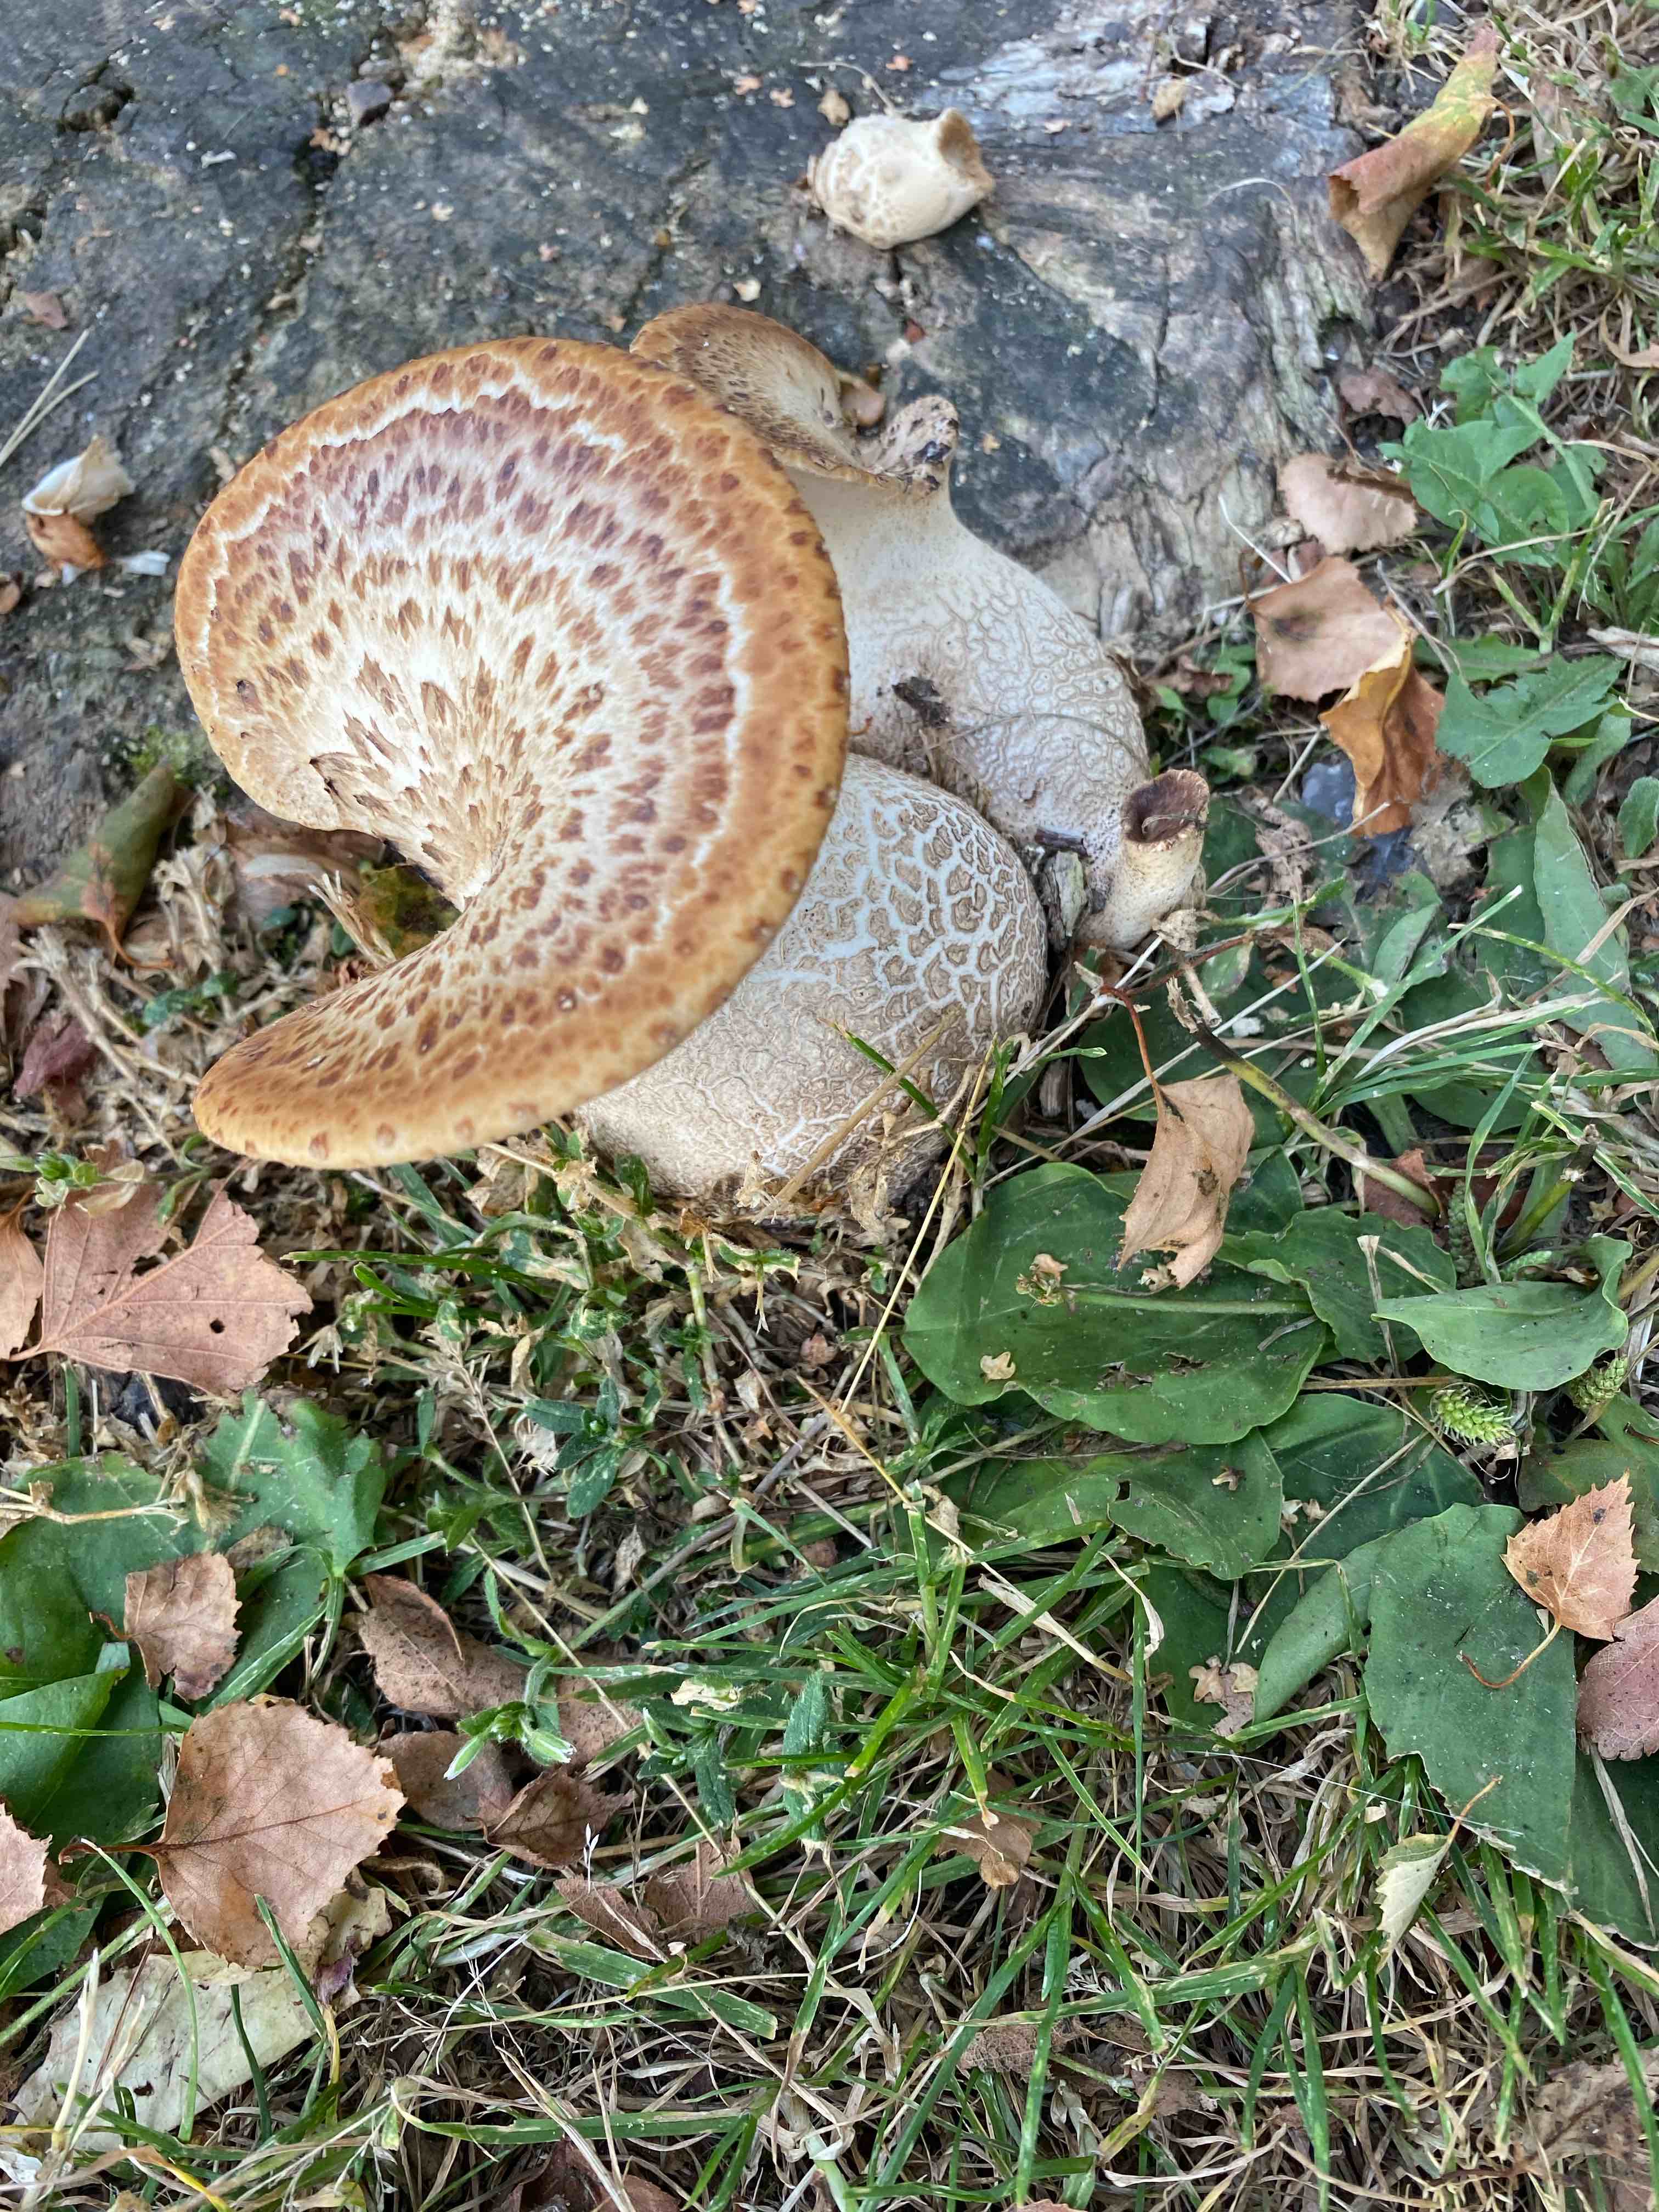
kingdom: Fungi
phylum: Basidiomycota
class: Agaricomycetes
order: Polyporales
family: Polyporaceae
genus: Cerioporus
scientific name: Cerioporus squamosus
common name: skællet stilkporesvamp
